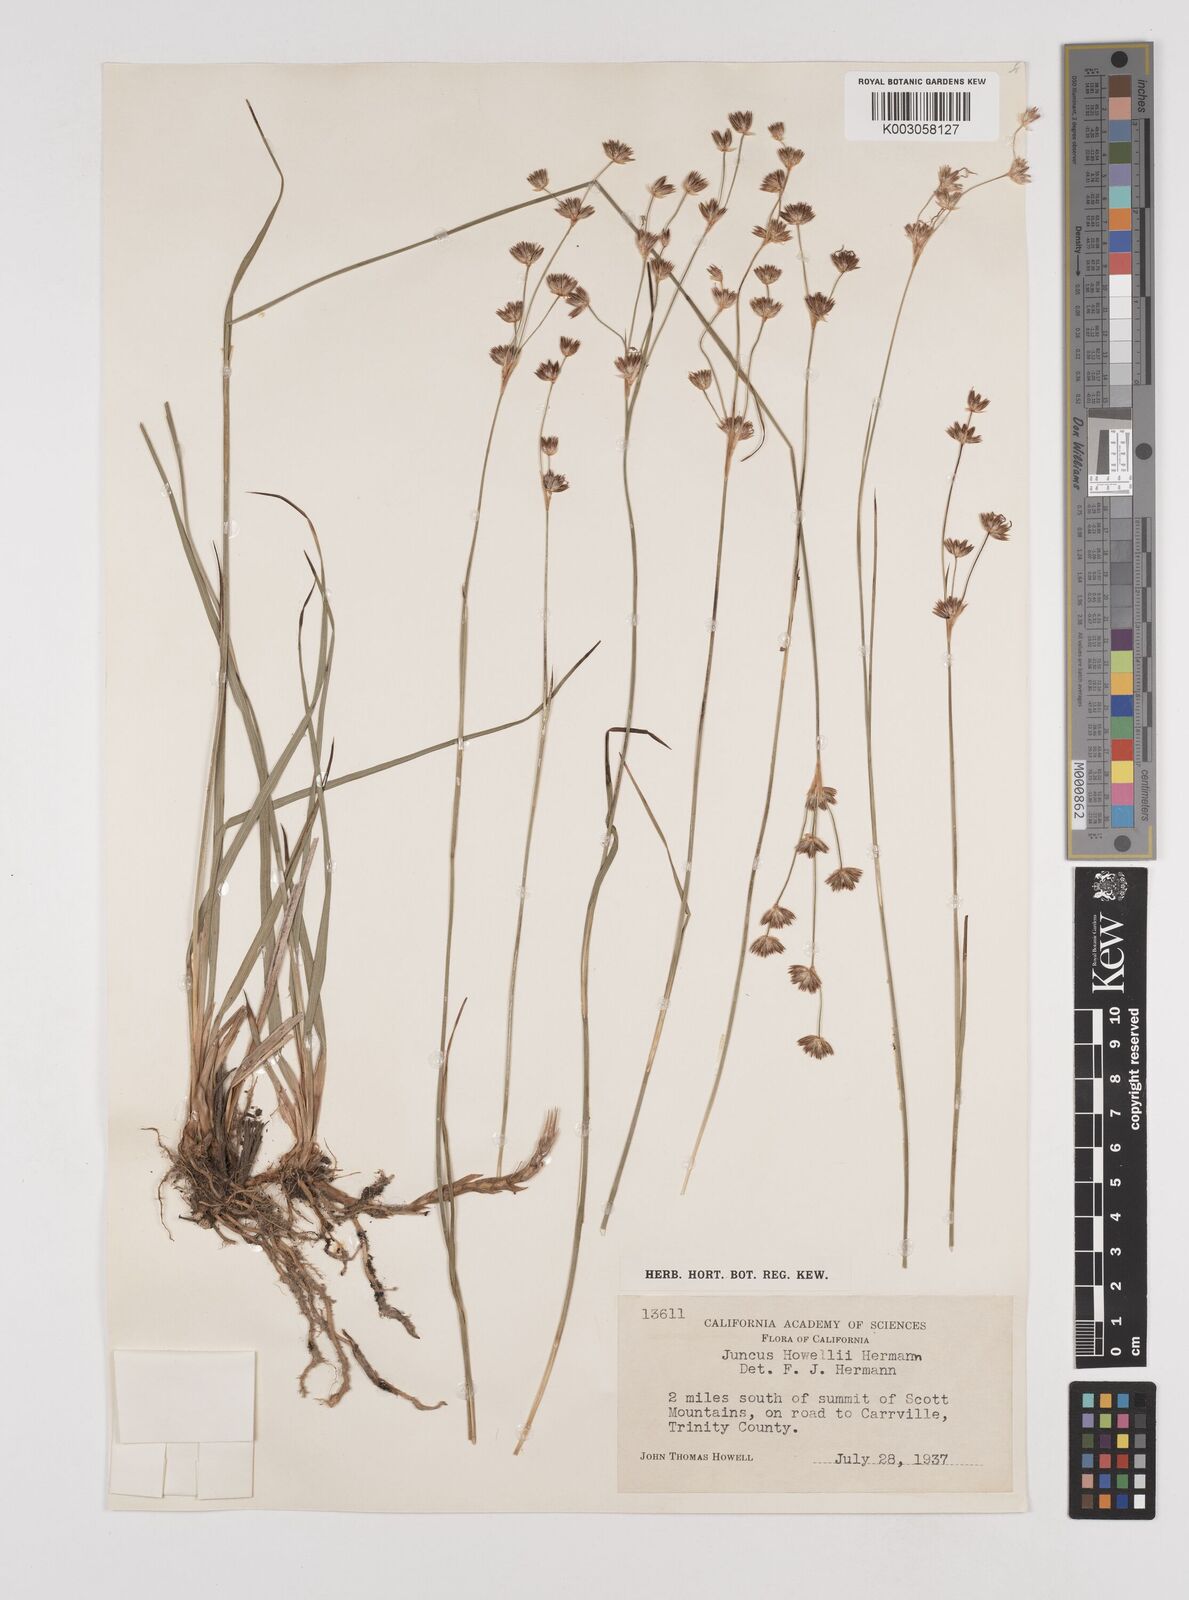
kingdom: Plantae
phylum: Tracheophyta
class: Liliopsida
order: Poales
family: Juncaceae
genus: Juncus
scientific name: Juncus howellii
